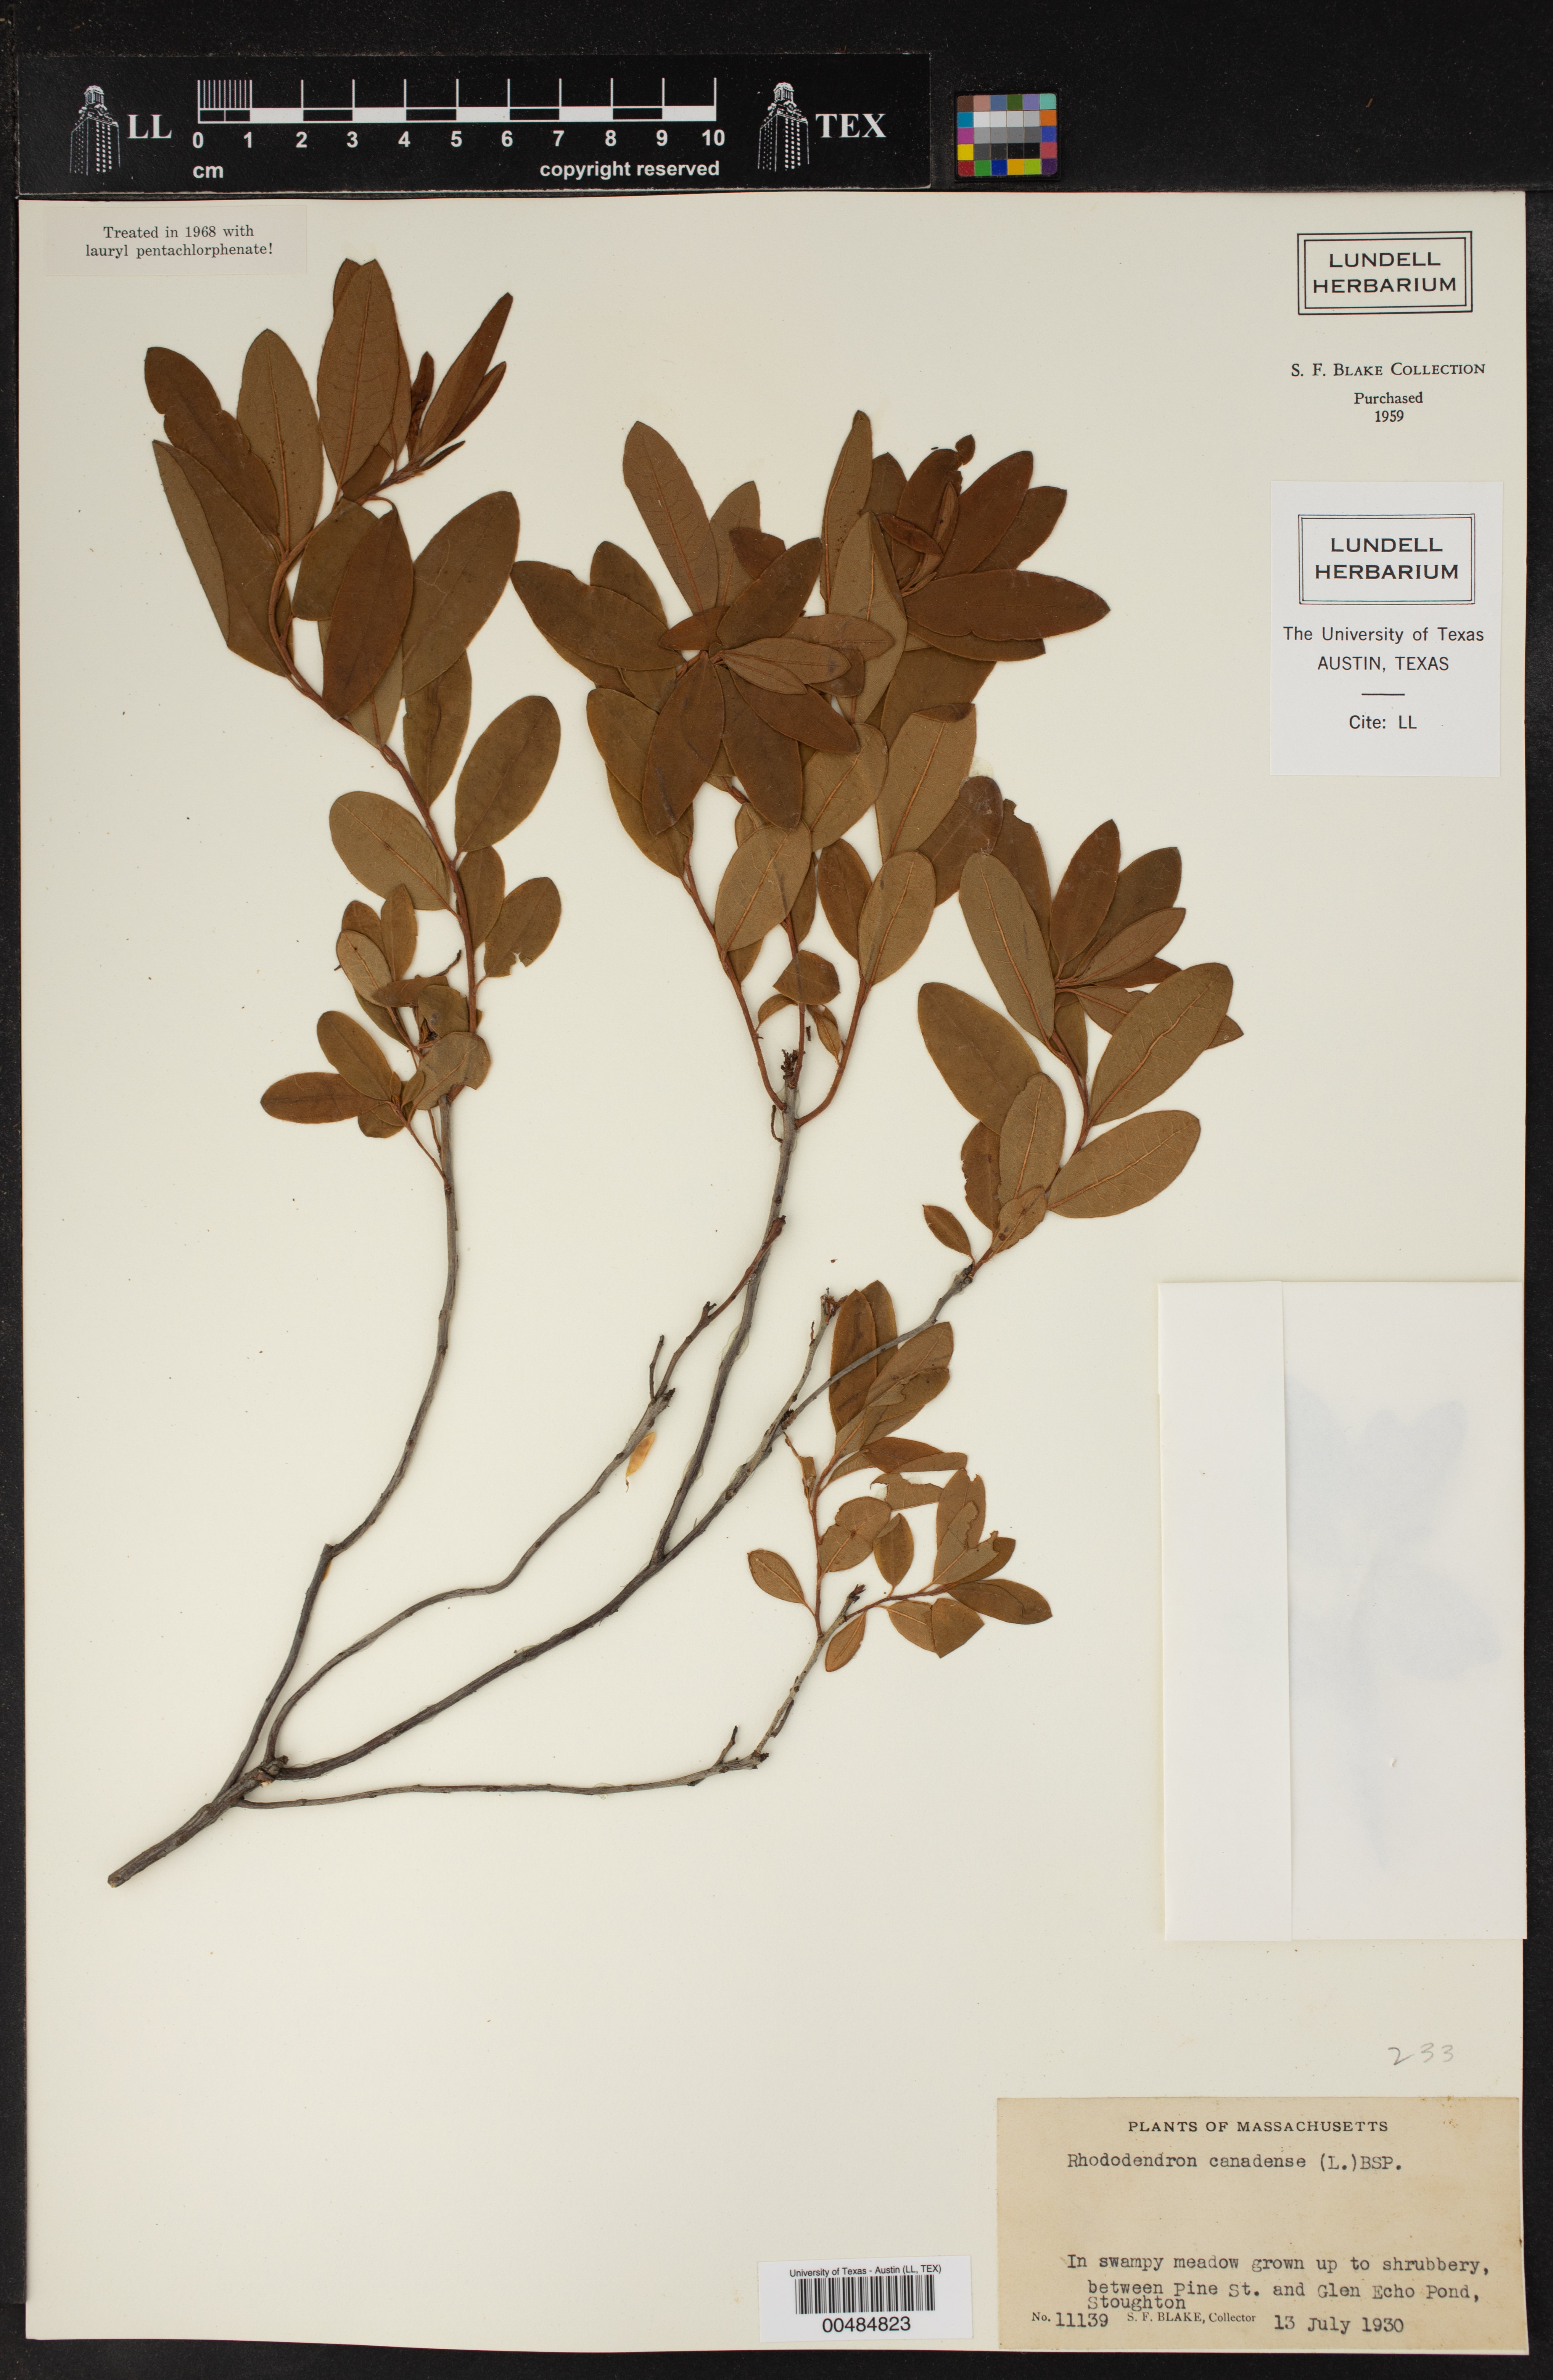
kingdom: Plantae
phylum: Tracheophyta
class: Magnoliopsida
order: Ericales
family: Ericaceae
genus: Rhododendron
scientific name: Rhododendron canadense
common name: Rhodora
